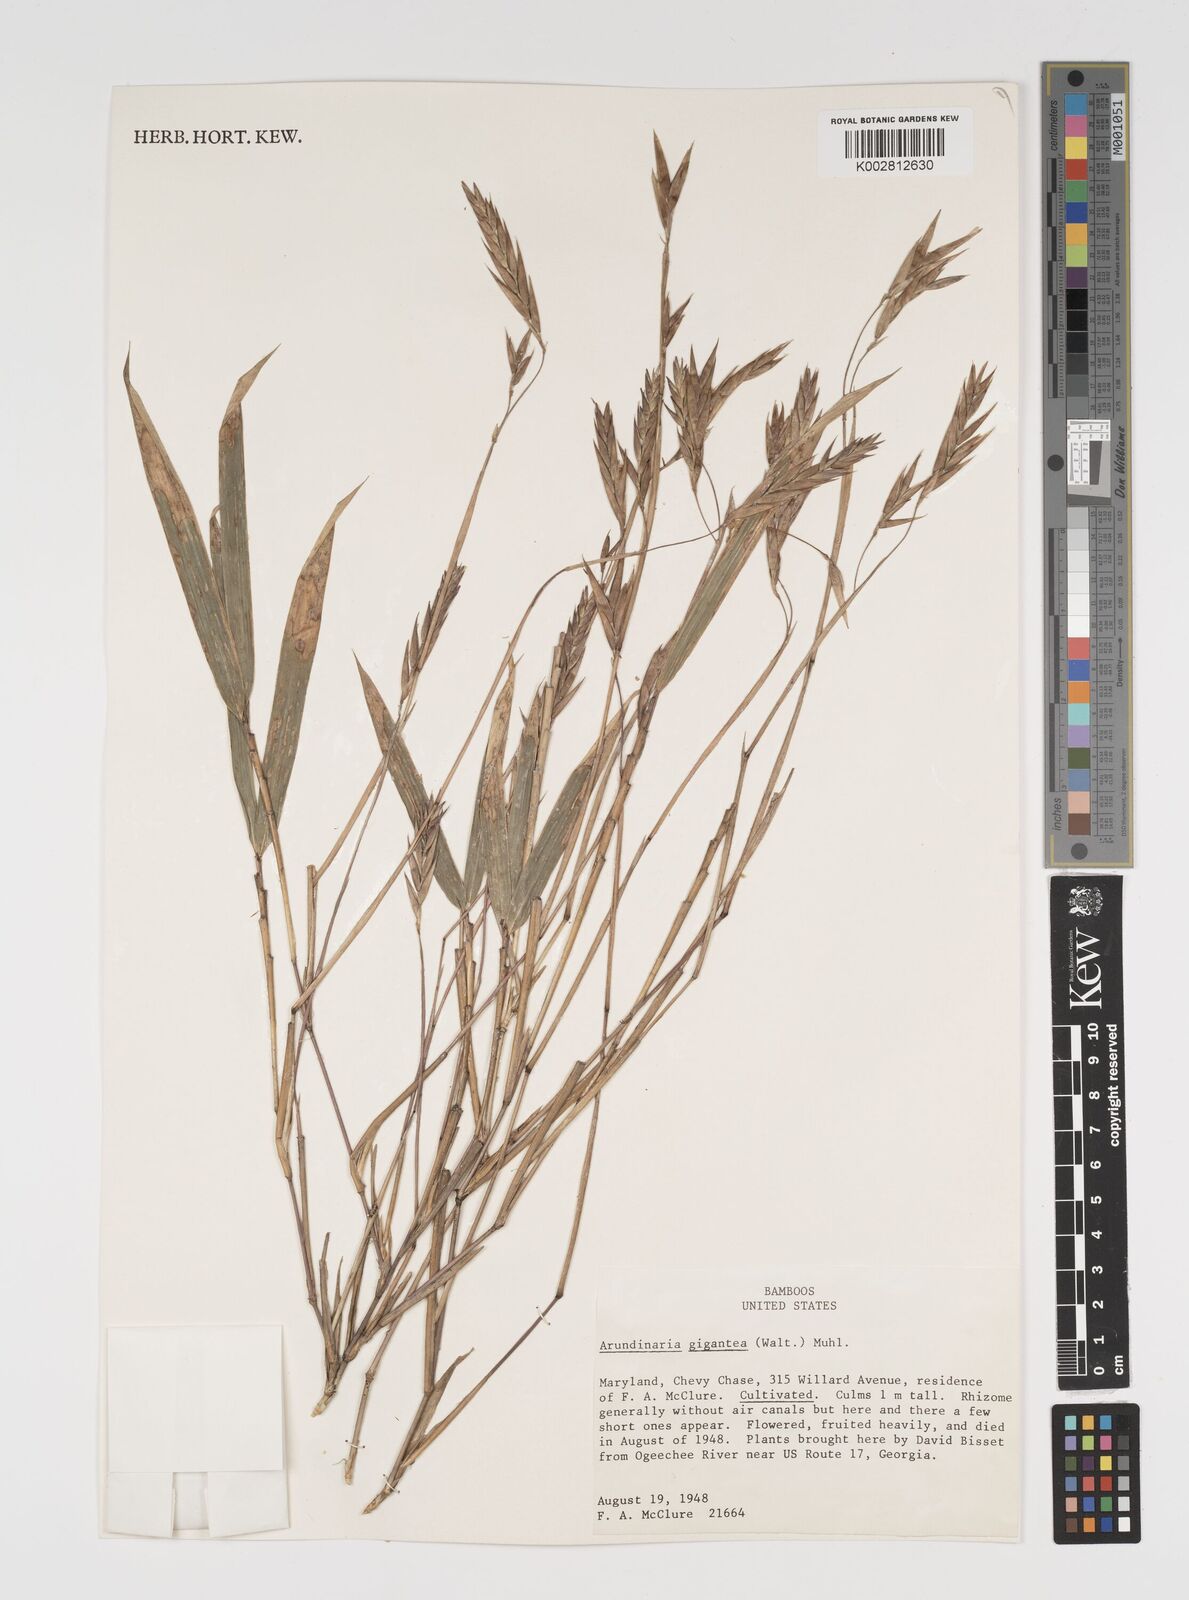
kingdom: Plantae
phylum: Tracheophyta
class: Liliopsida
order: Poales
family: Poaceae
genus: Arundinaria
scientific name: Arundinaria
